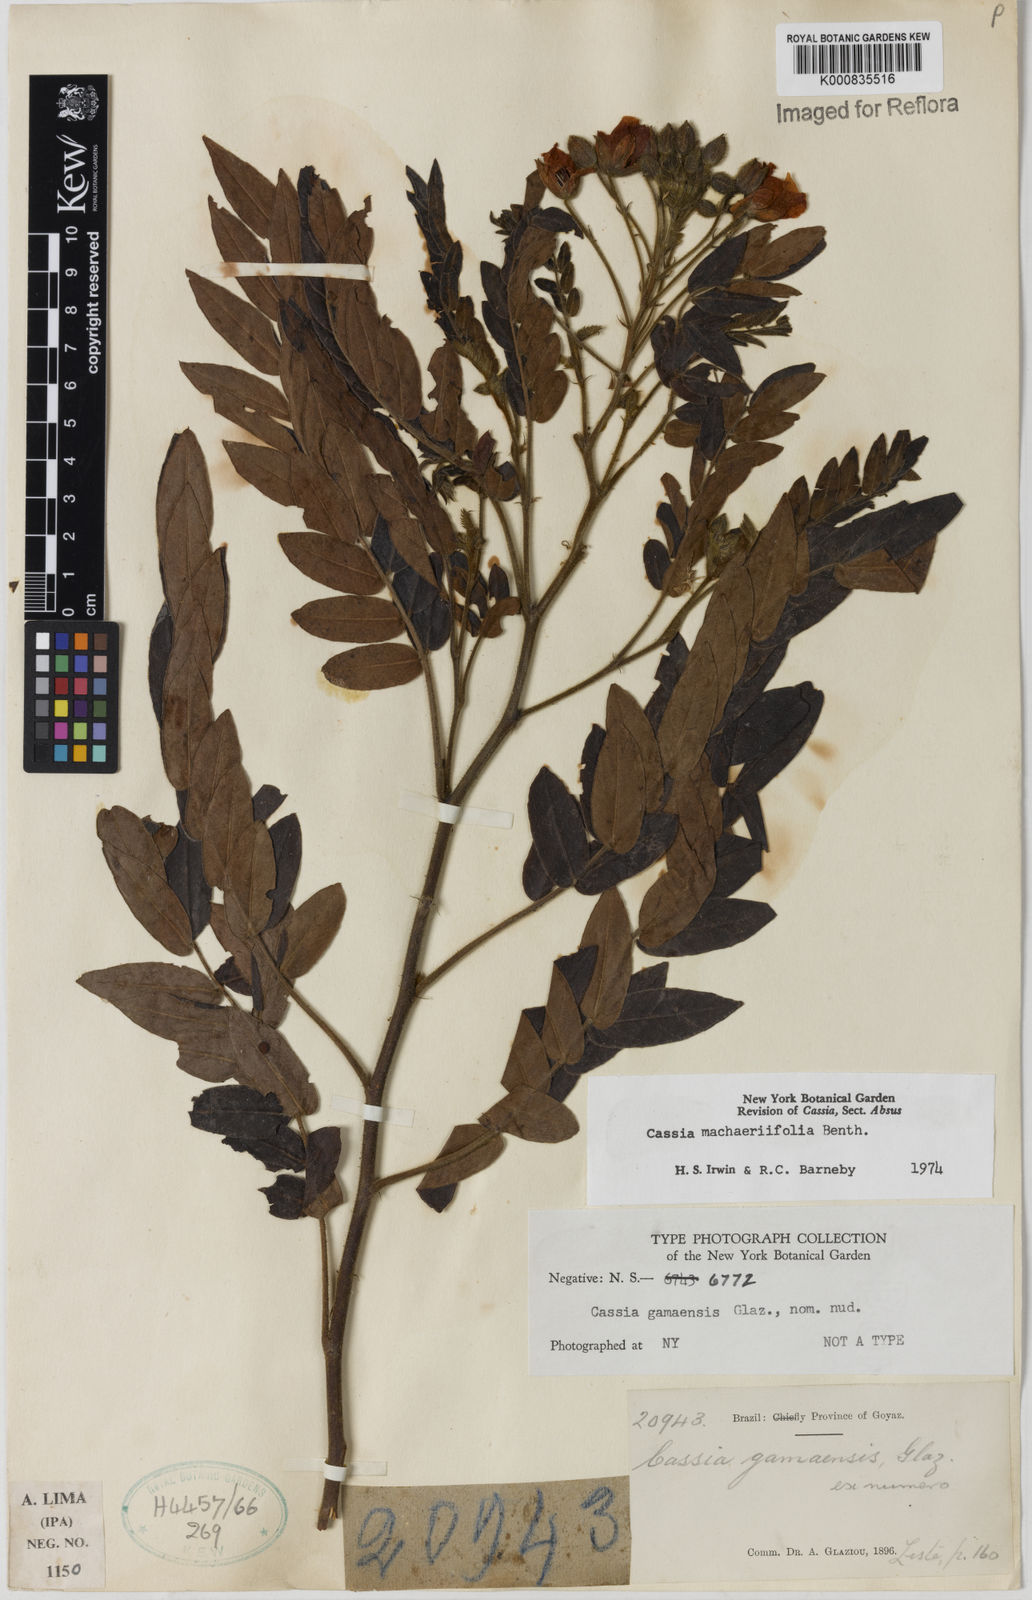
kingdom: Plantae
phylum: Tracheophyta
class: Magnoliopsida
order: Fabales
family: Fabaceae
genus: Chamaecrista
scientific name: Chamaecrista machaeriifolia
